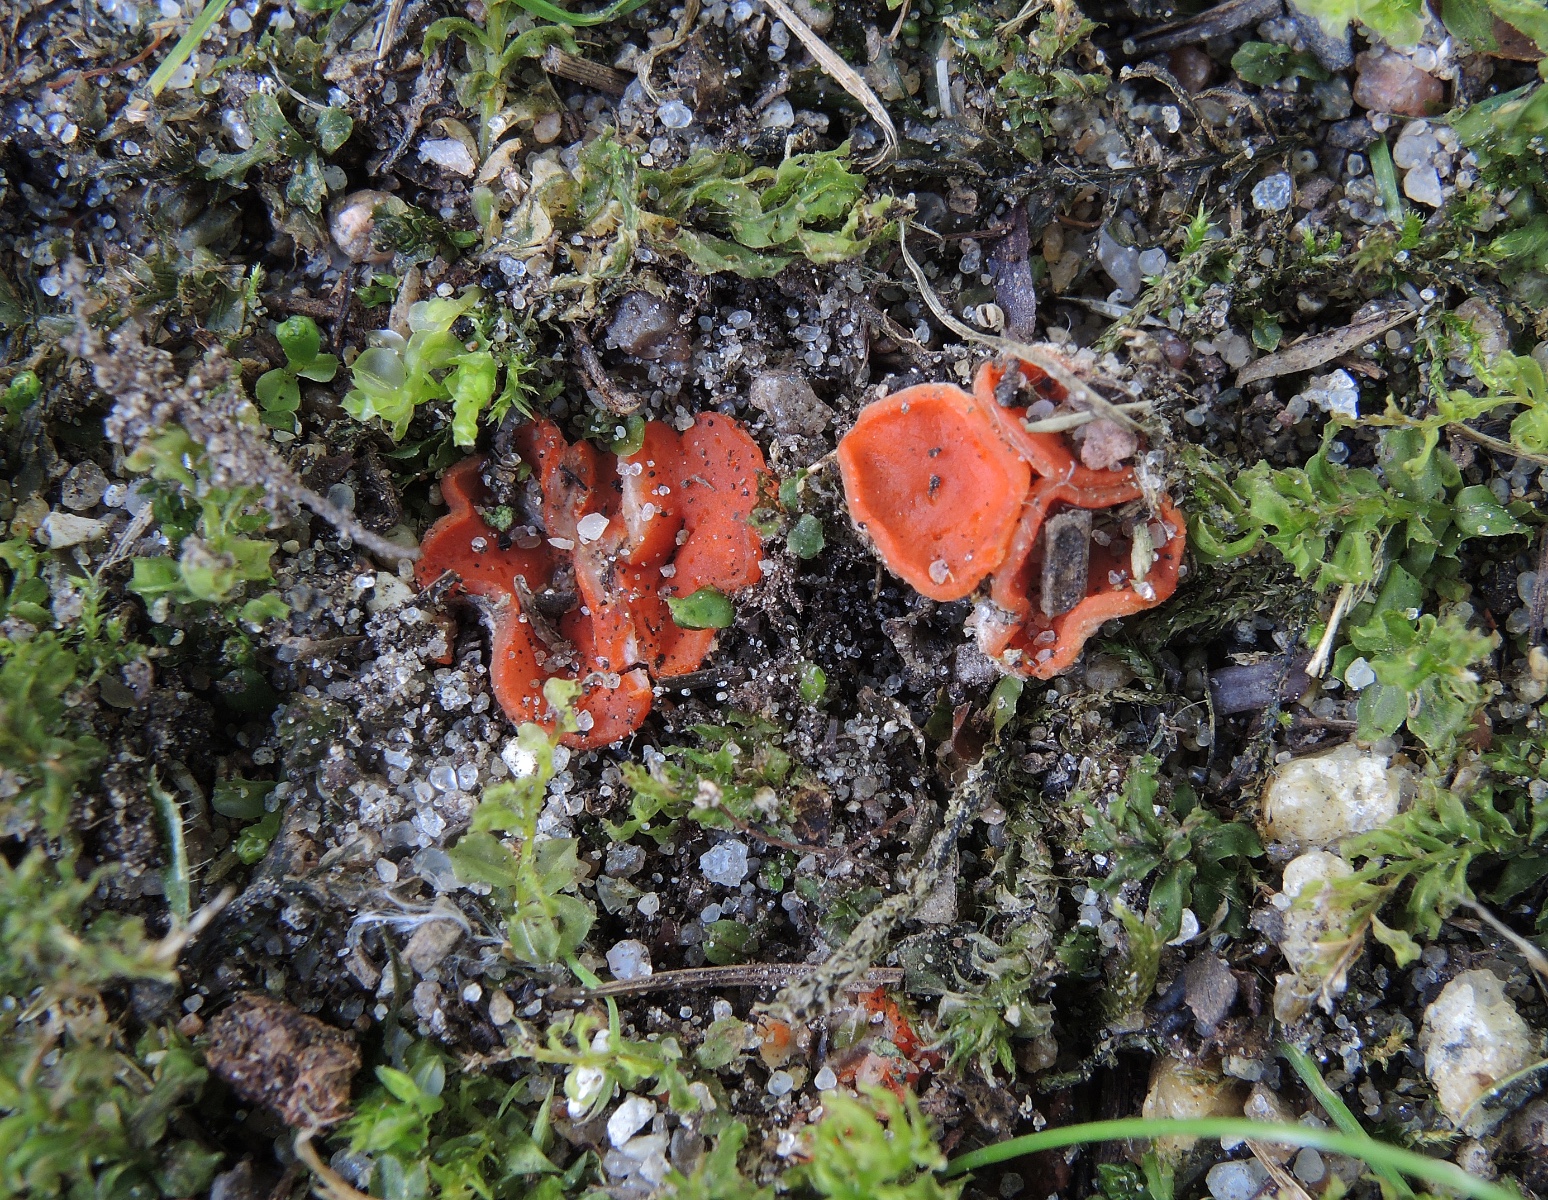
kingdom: Fungi
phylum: Ascomycota
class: Pezizomycetes
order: Pezizales
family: Pulvinulaceae
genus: Pulvinula
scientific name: Pulvinula miltina
